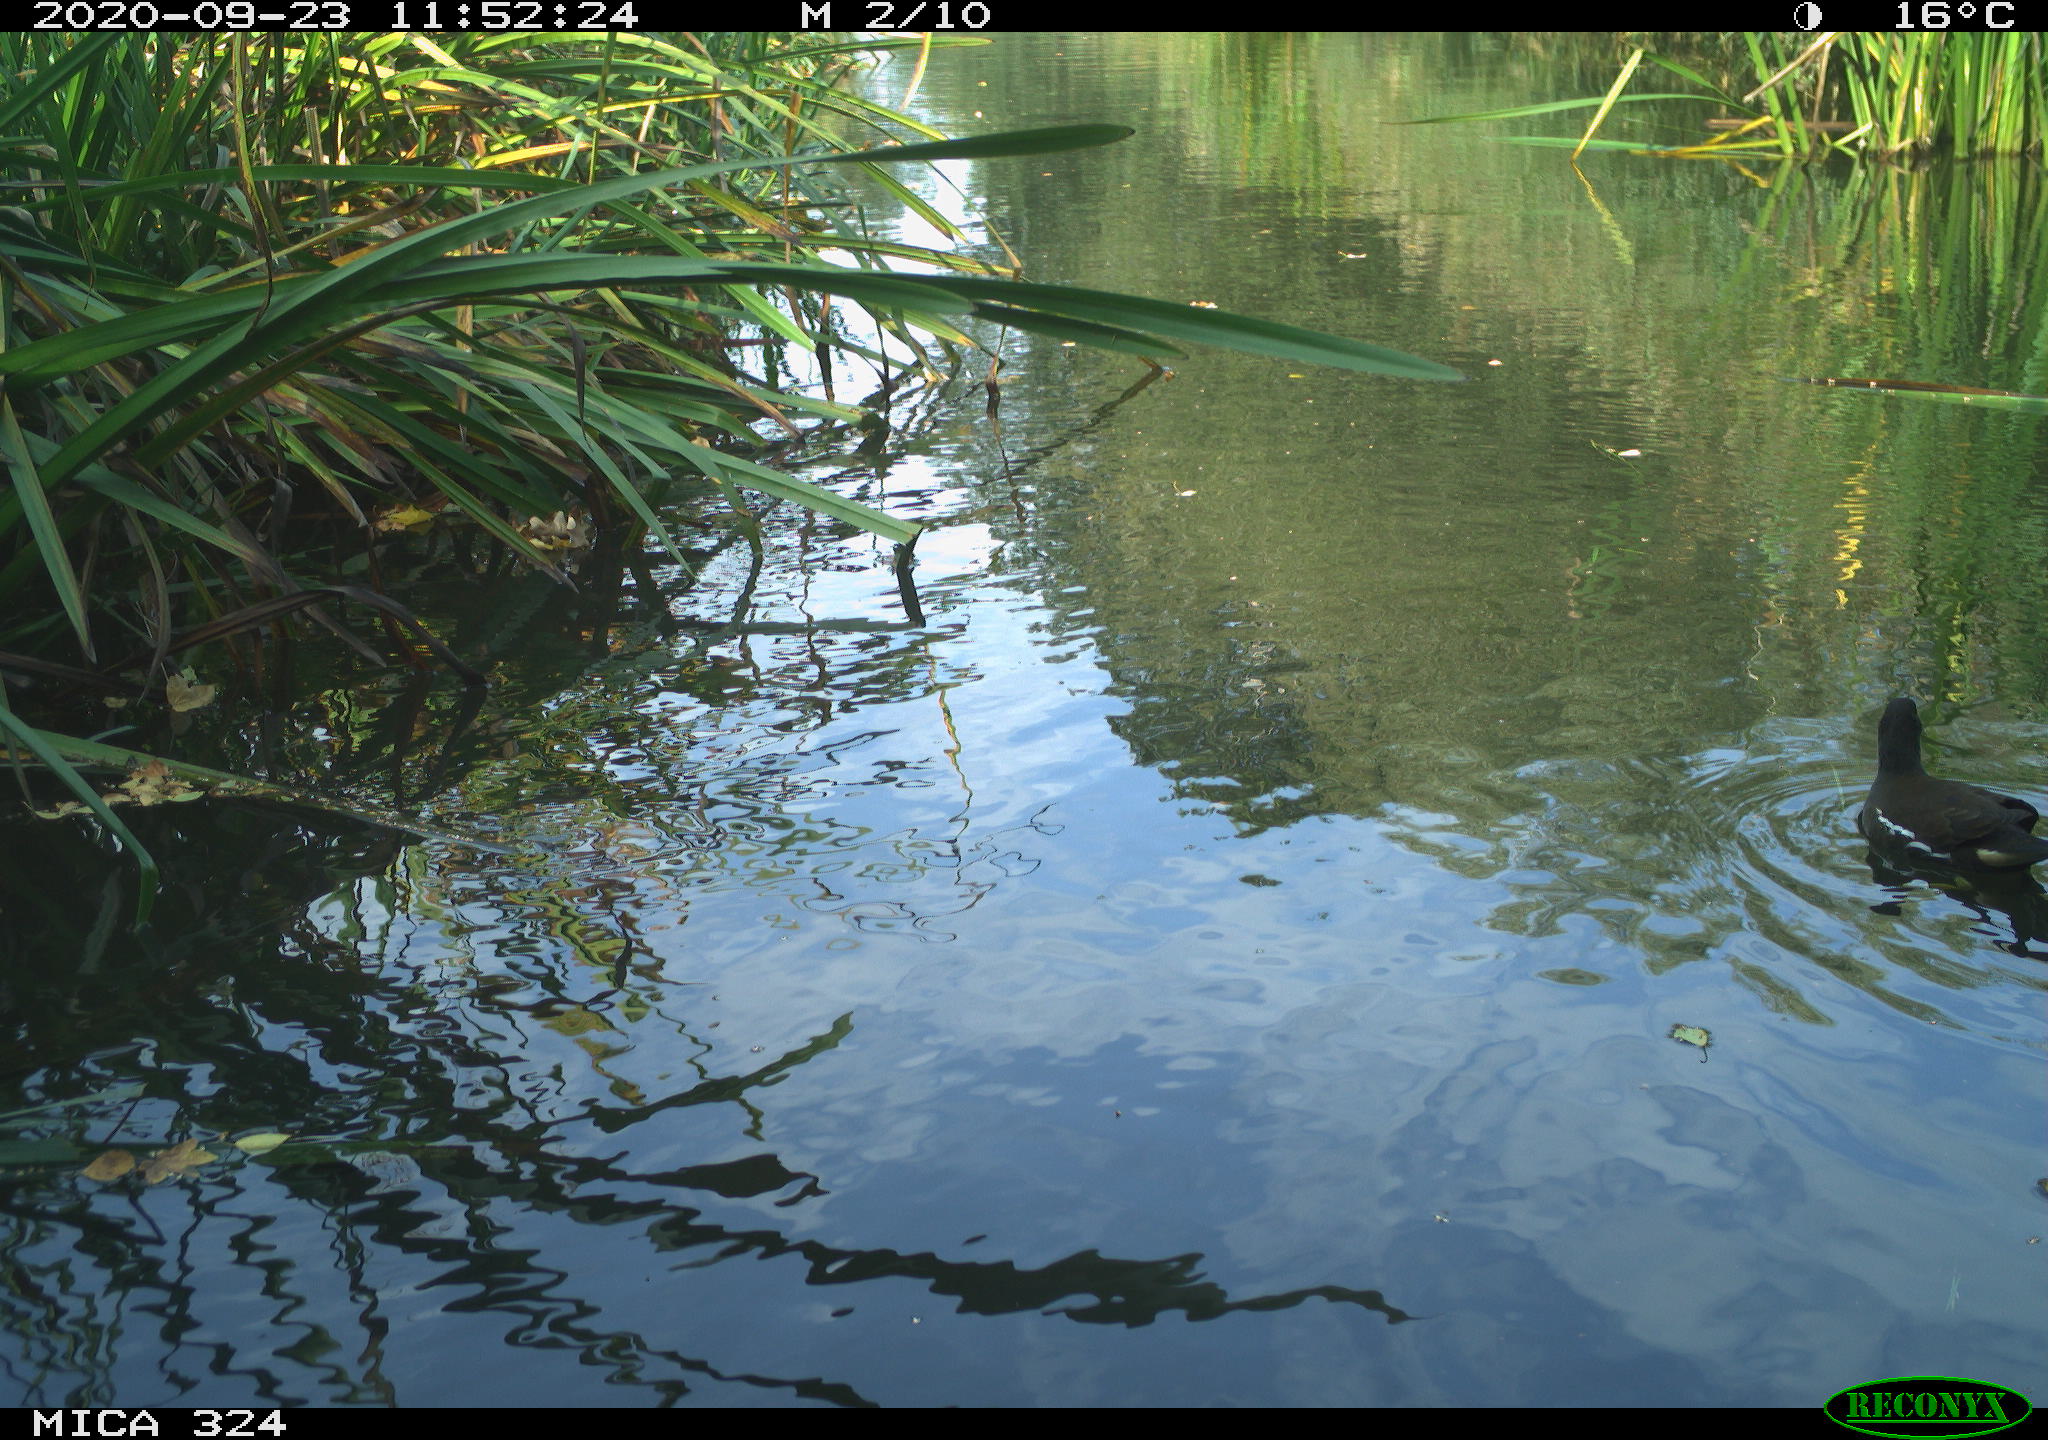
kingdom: Animalia
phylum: Chordata
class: Aves
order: Gruiformes
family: Rallidae
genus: Gallinula
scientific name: Gallinula chloropus
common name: Common moorhen
